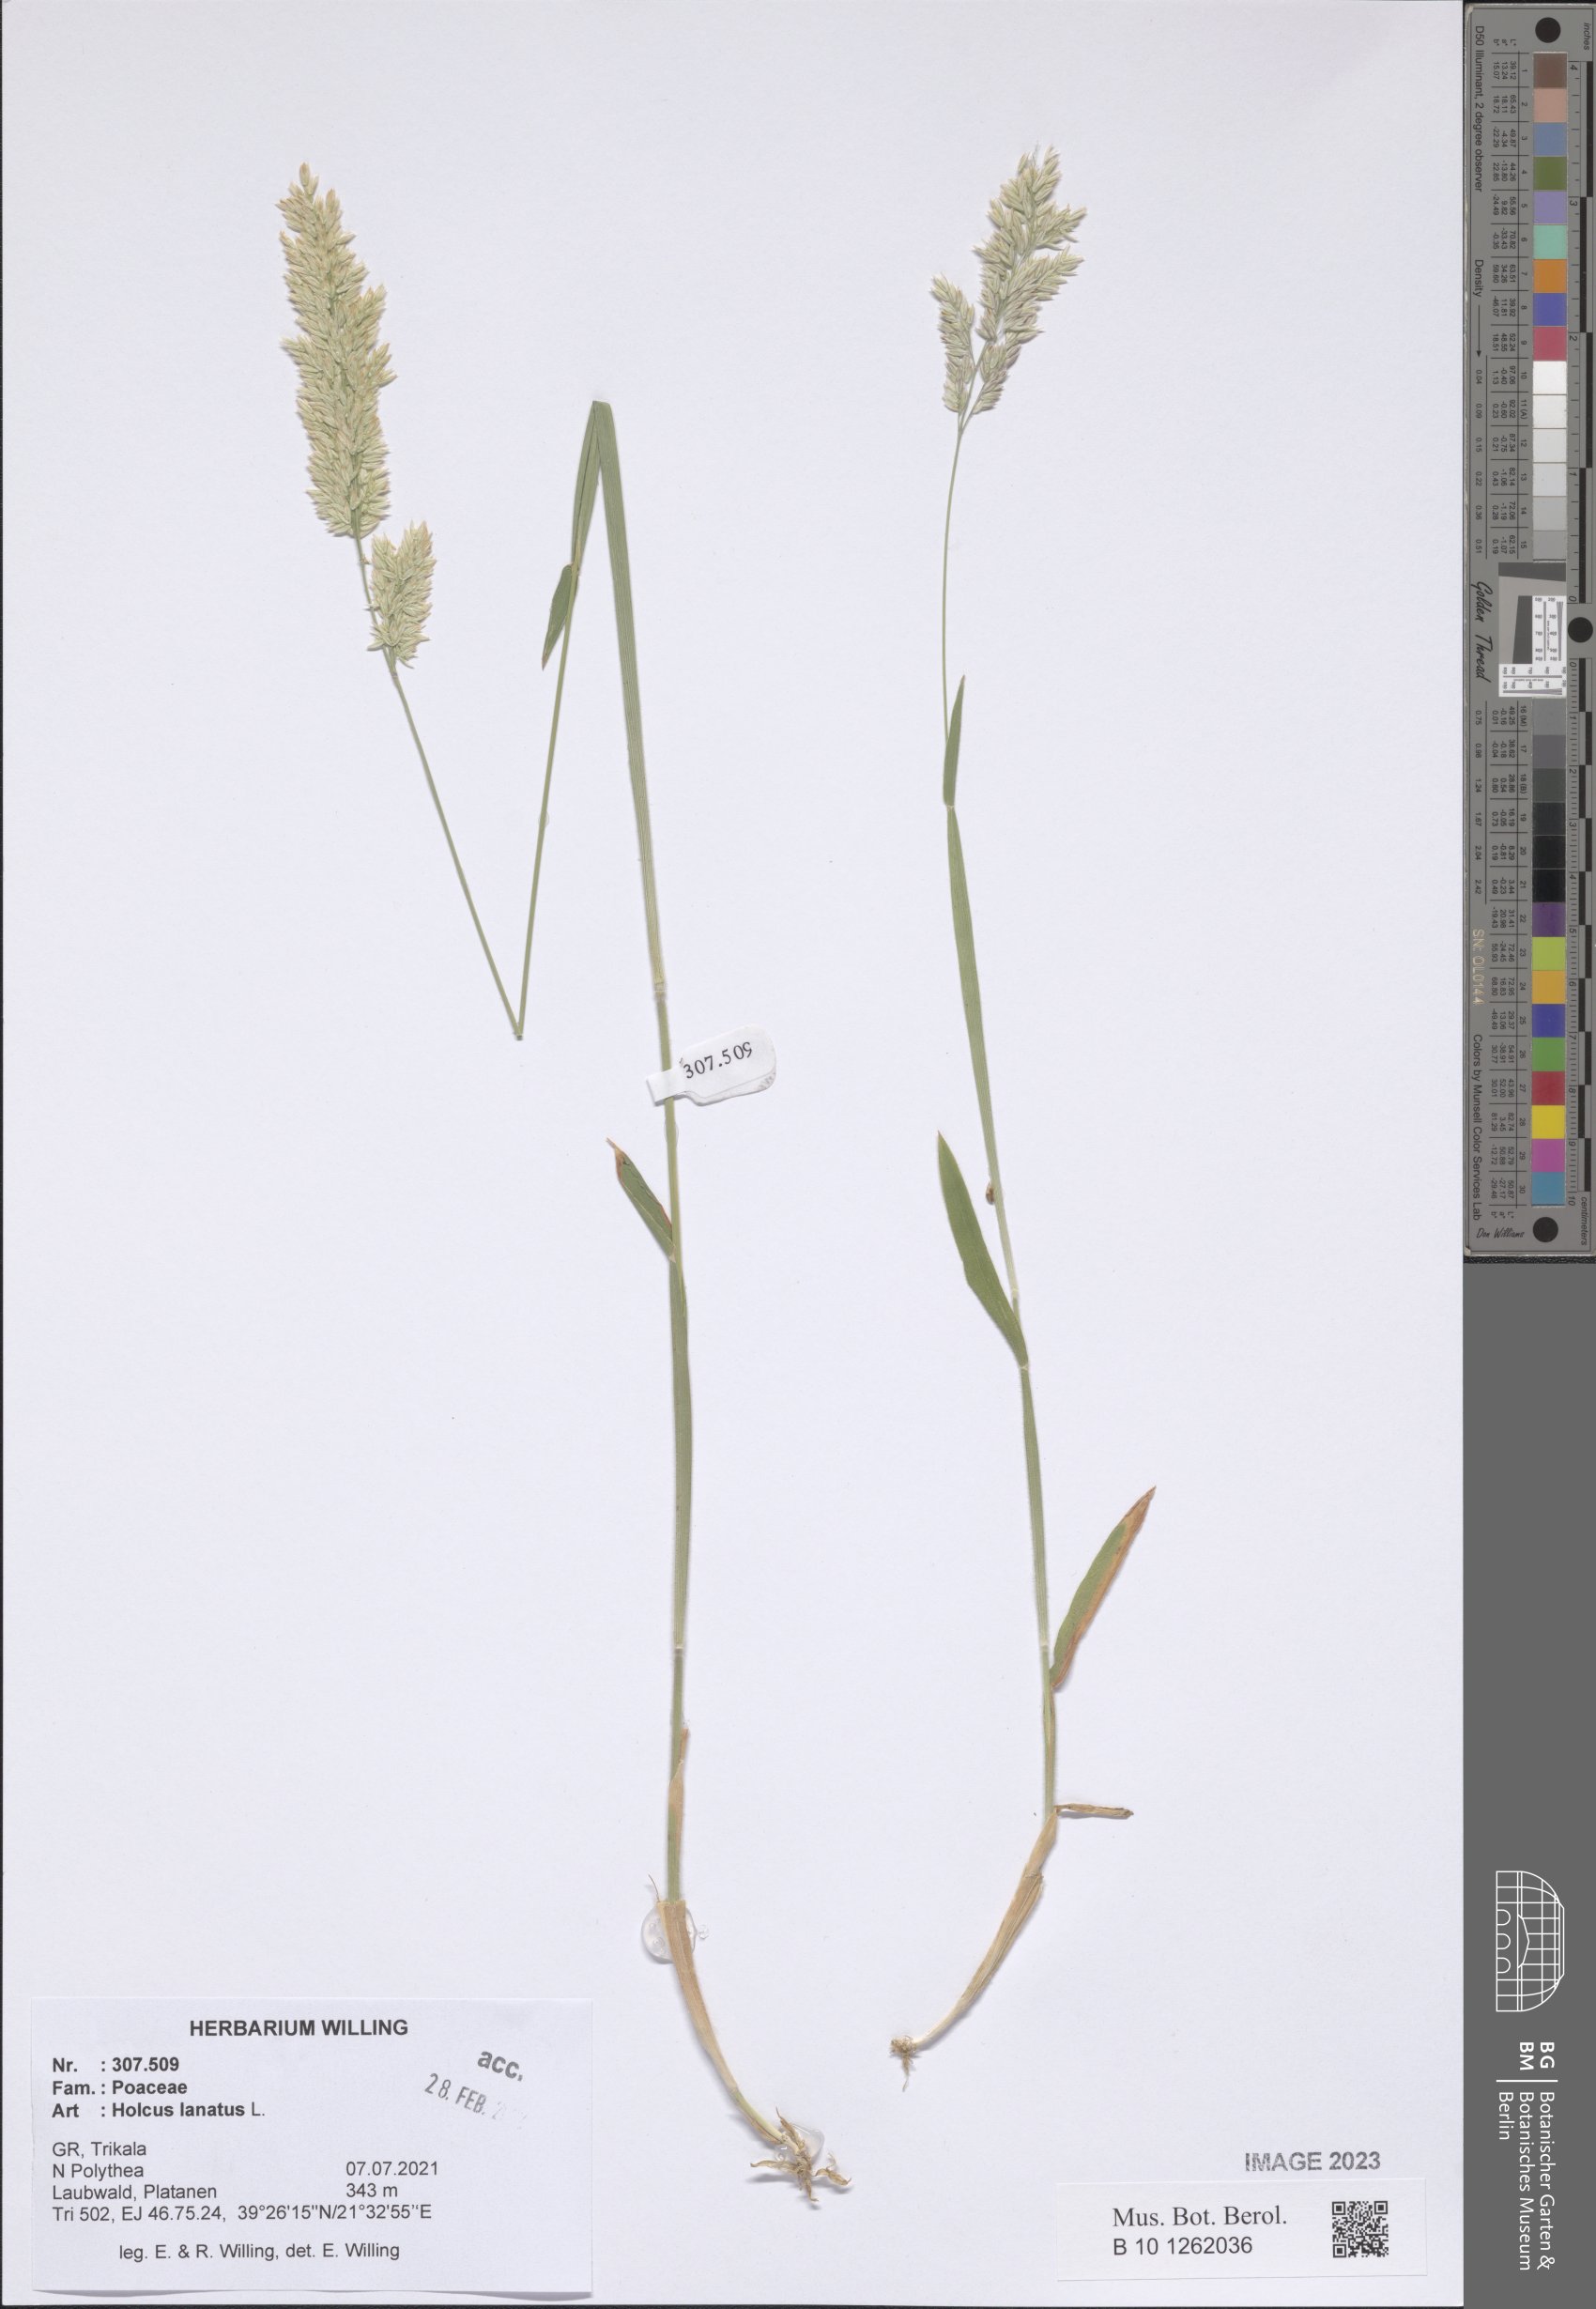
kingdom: Plantae
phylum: Tracheophyta
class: Liliopsida
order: Poales
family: Poaceae
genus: Holcus
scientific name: Holcus lanatus
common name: Yorkshire-fog
